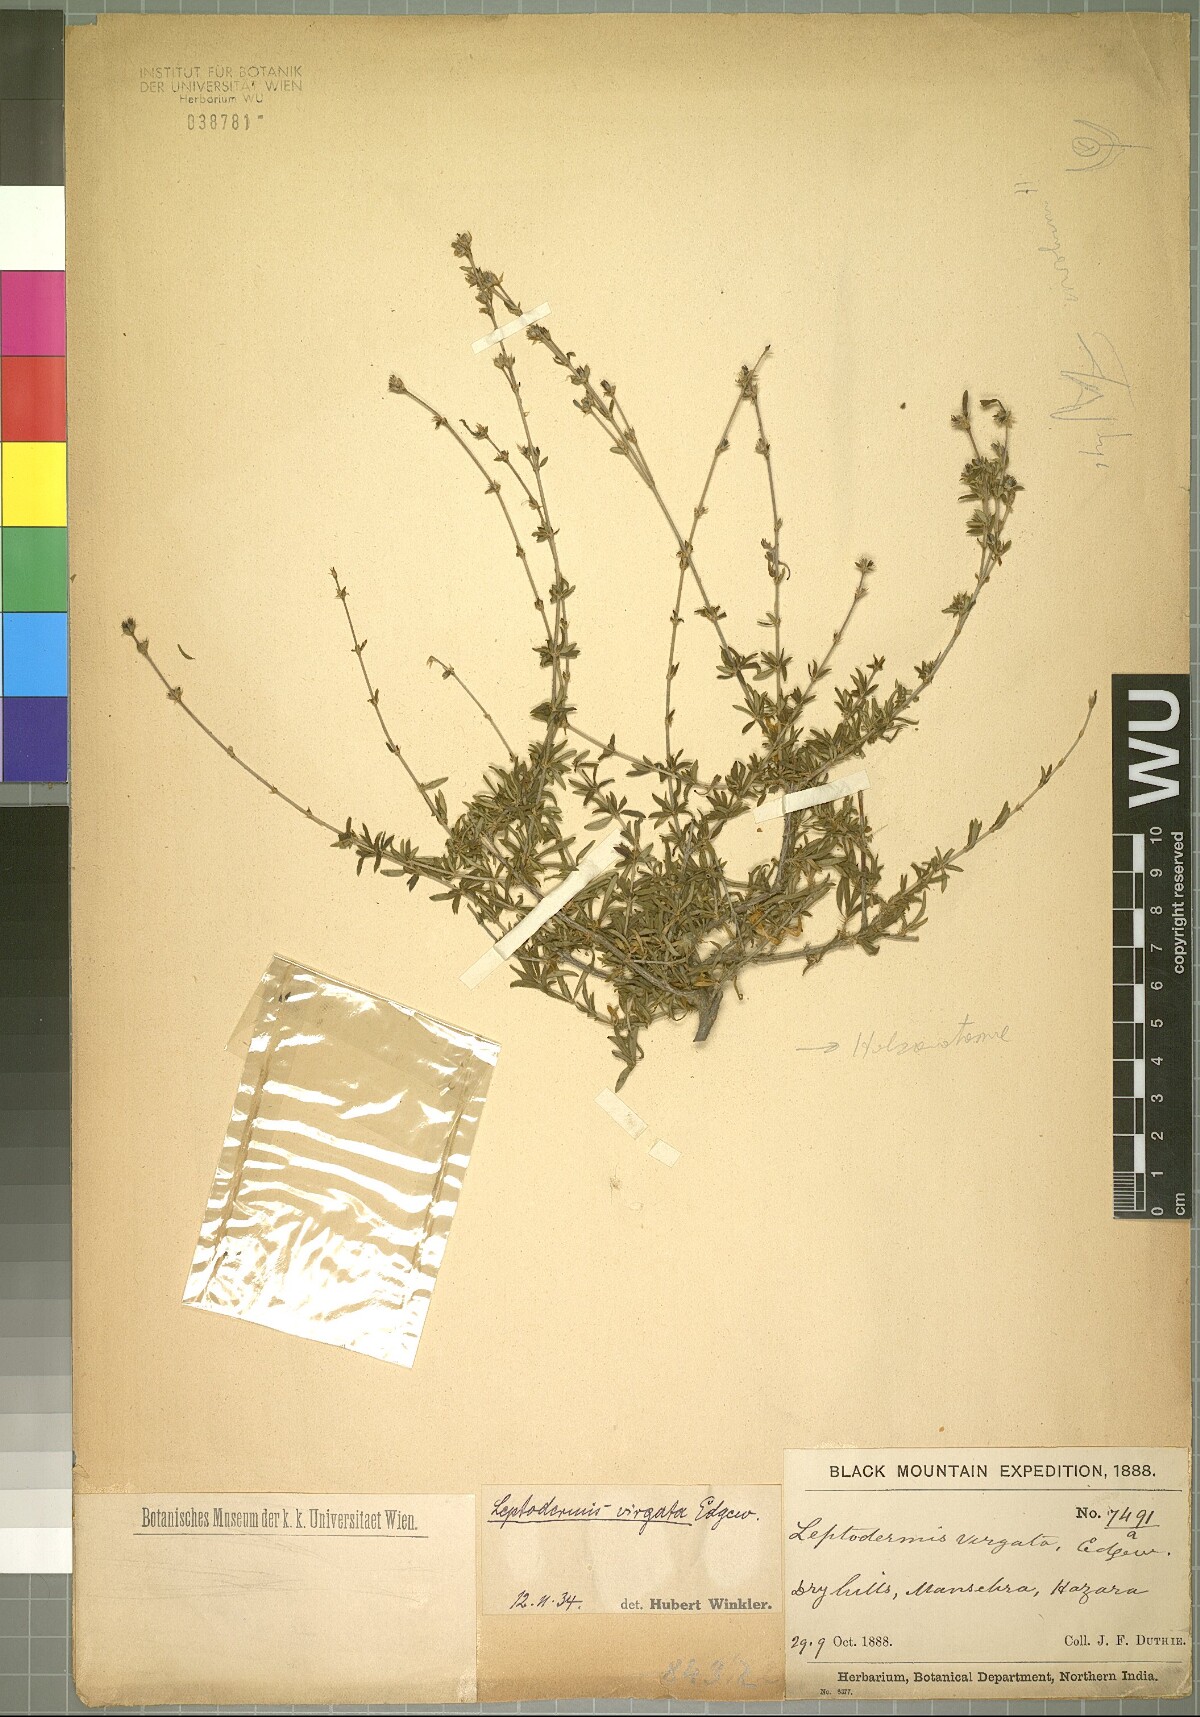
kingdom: Plantae
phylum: Tracheophyta
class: Magnoliopsida
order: Gentianales
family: Rubiaceae
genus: Leptodermis
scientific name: Leptodermis virgata
